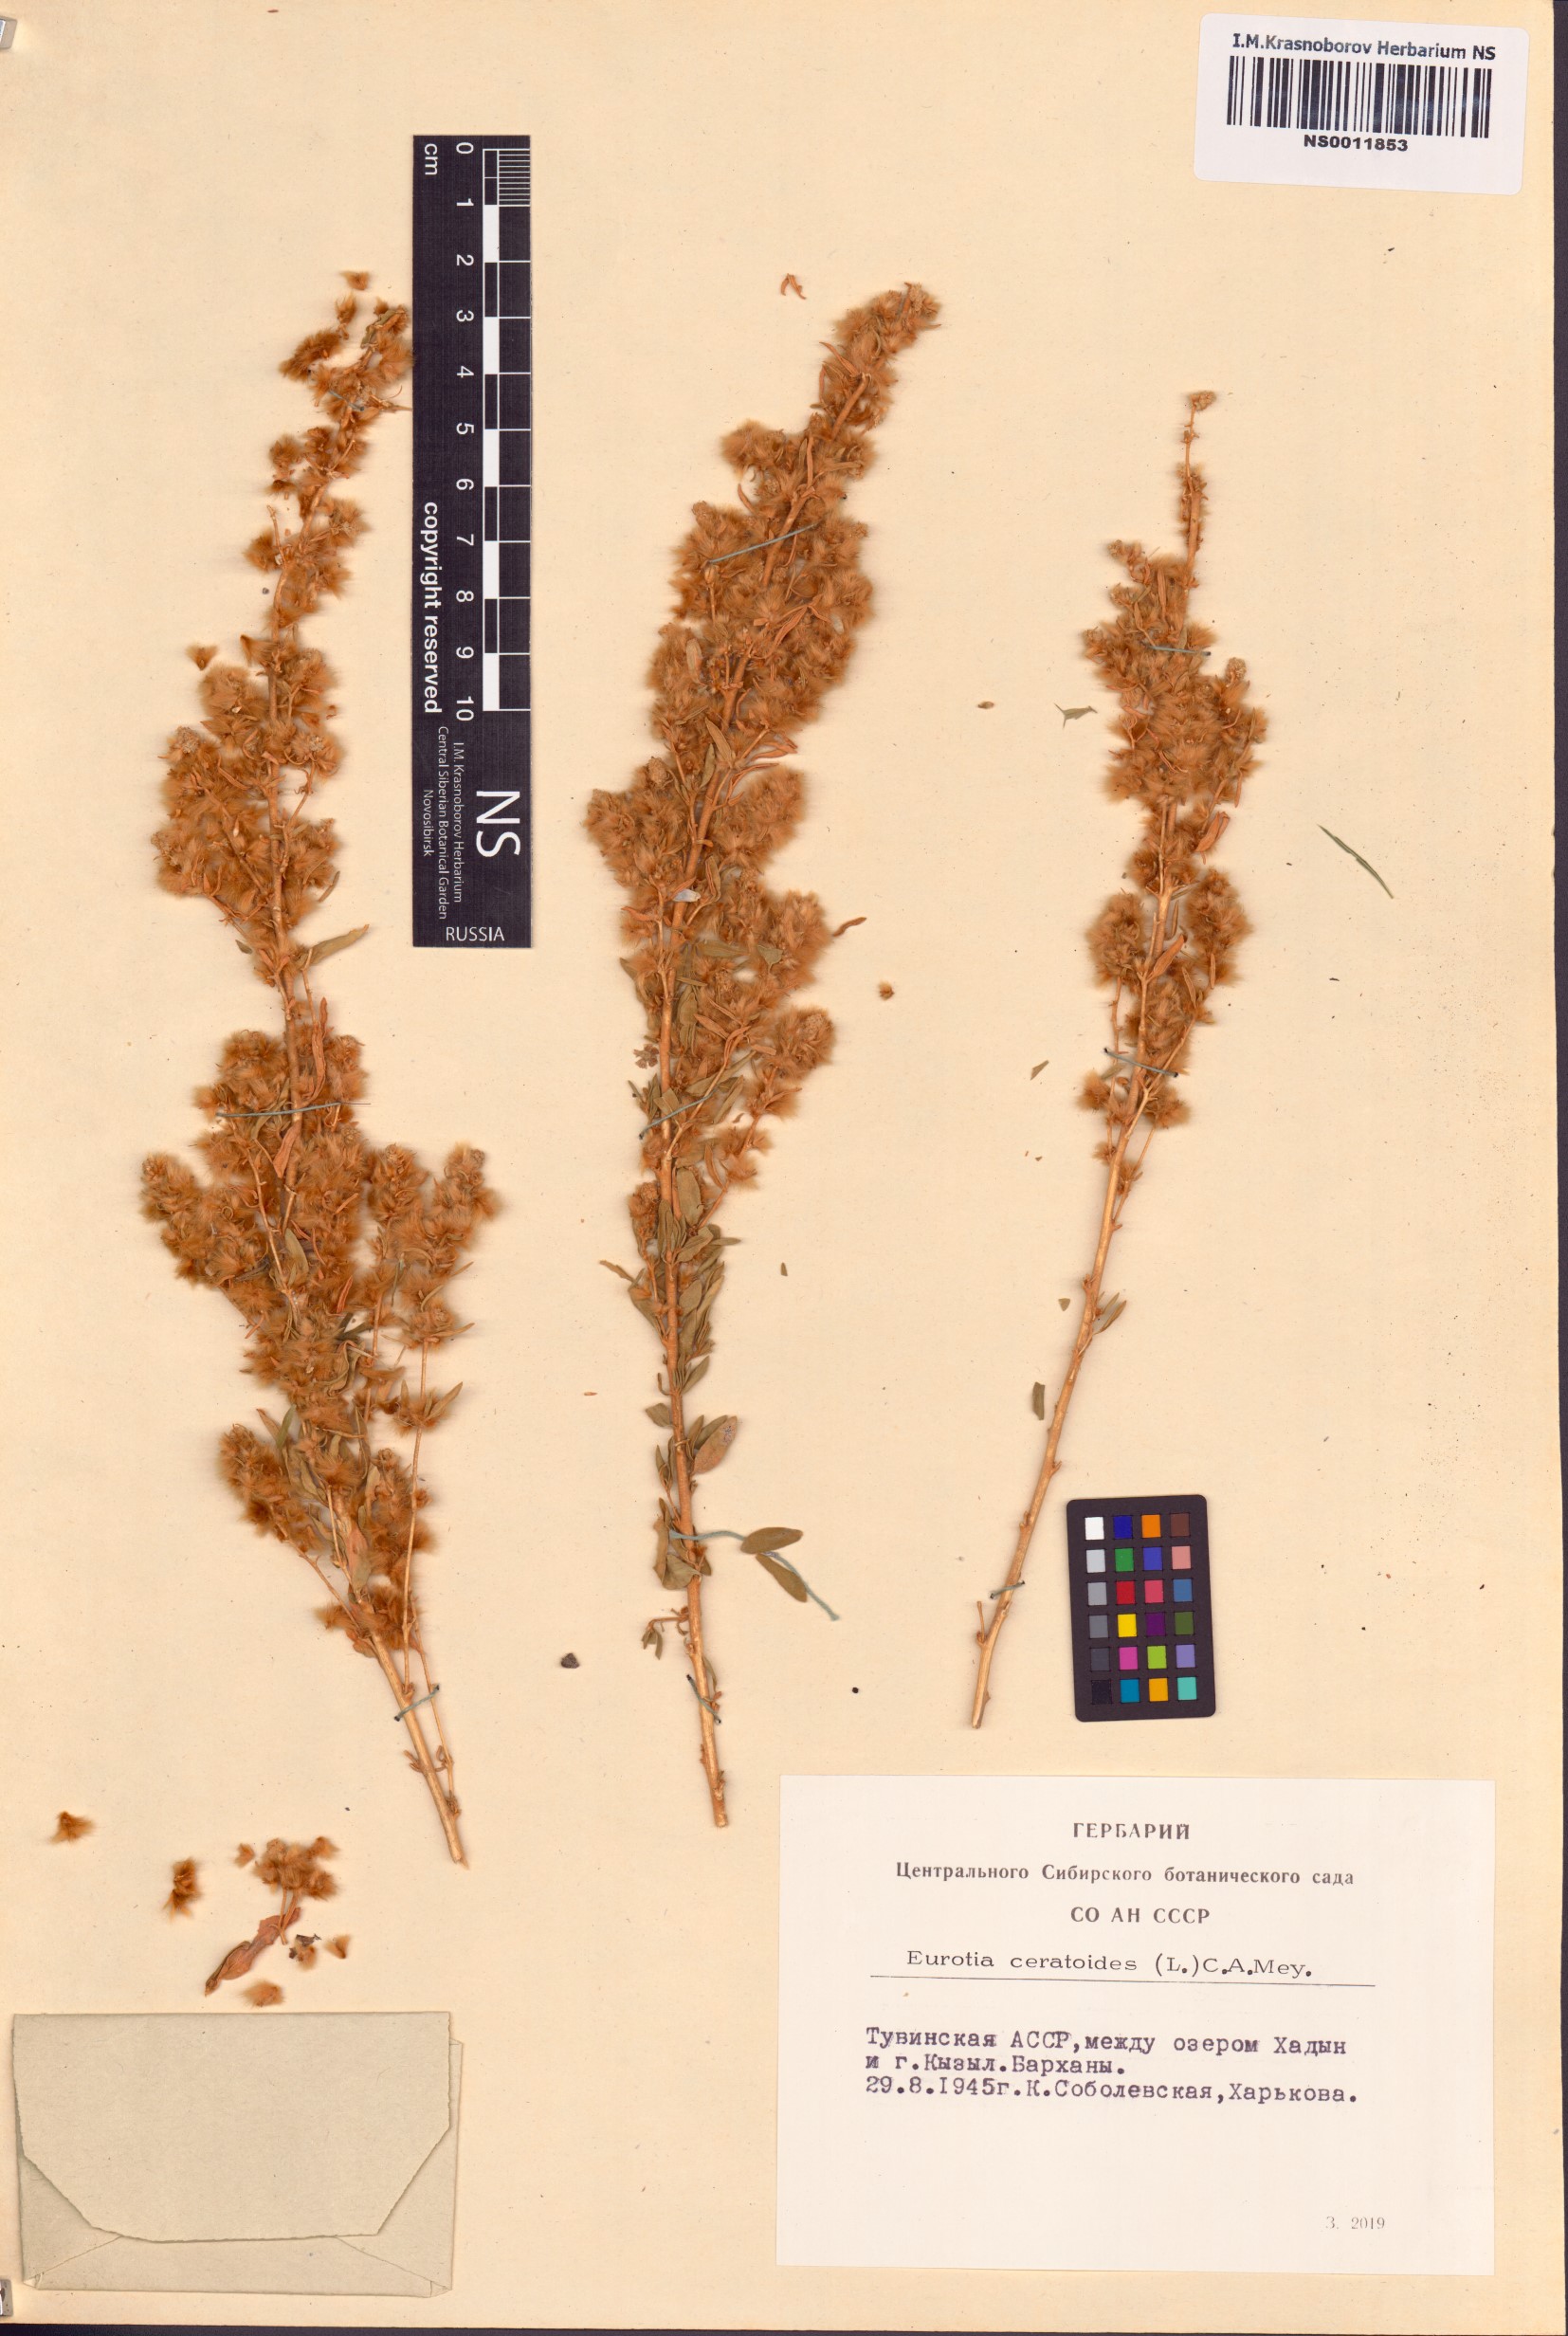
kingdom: Plantae
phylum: Tracheophyta
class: Magnoliopsida
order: Caryophyllales
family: Amaranthaceae
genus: Krascheninnikovia
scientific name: Krascheninnikovia ceratoides
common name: Pamirian winterfat
